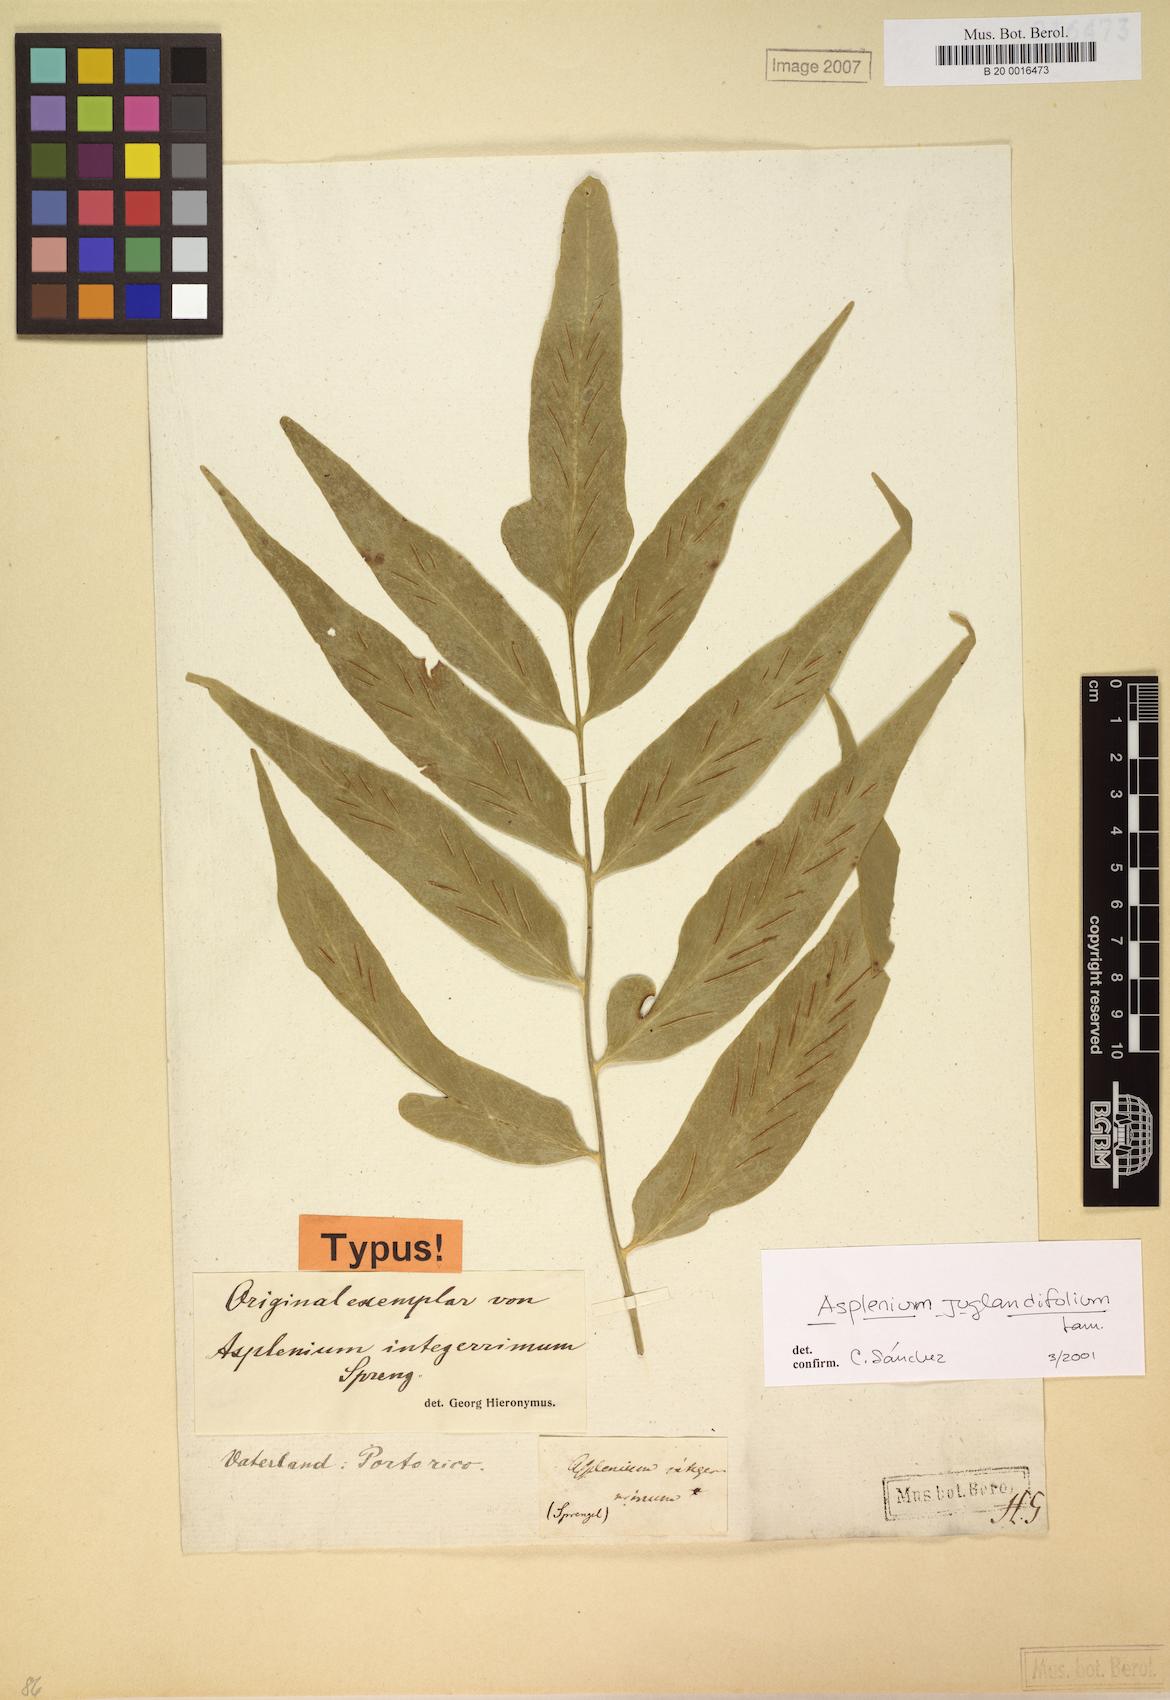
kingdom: Plantae
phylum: Tracheophyta
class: Polypodiopsida
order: Polypodiales
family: Aspleniaceae
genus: Asplenium
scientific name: Asplenium juglandifolium
